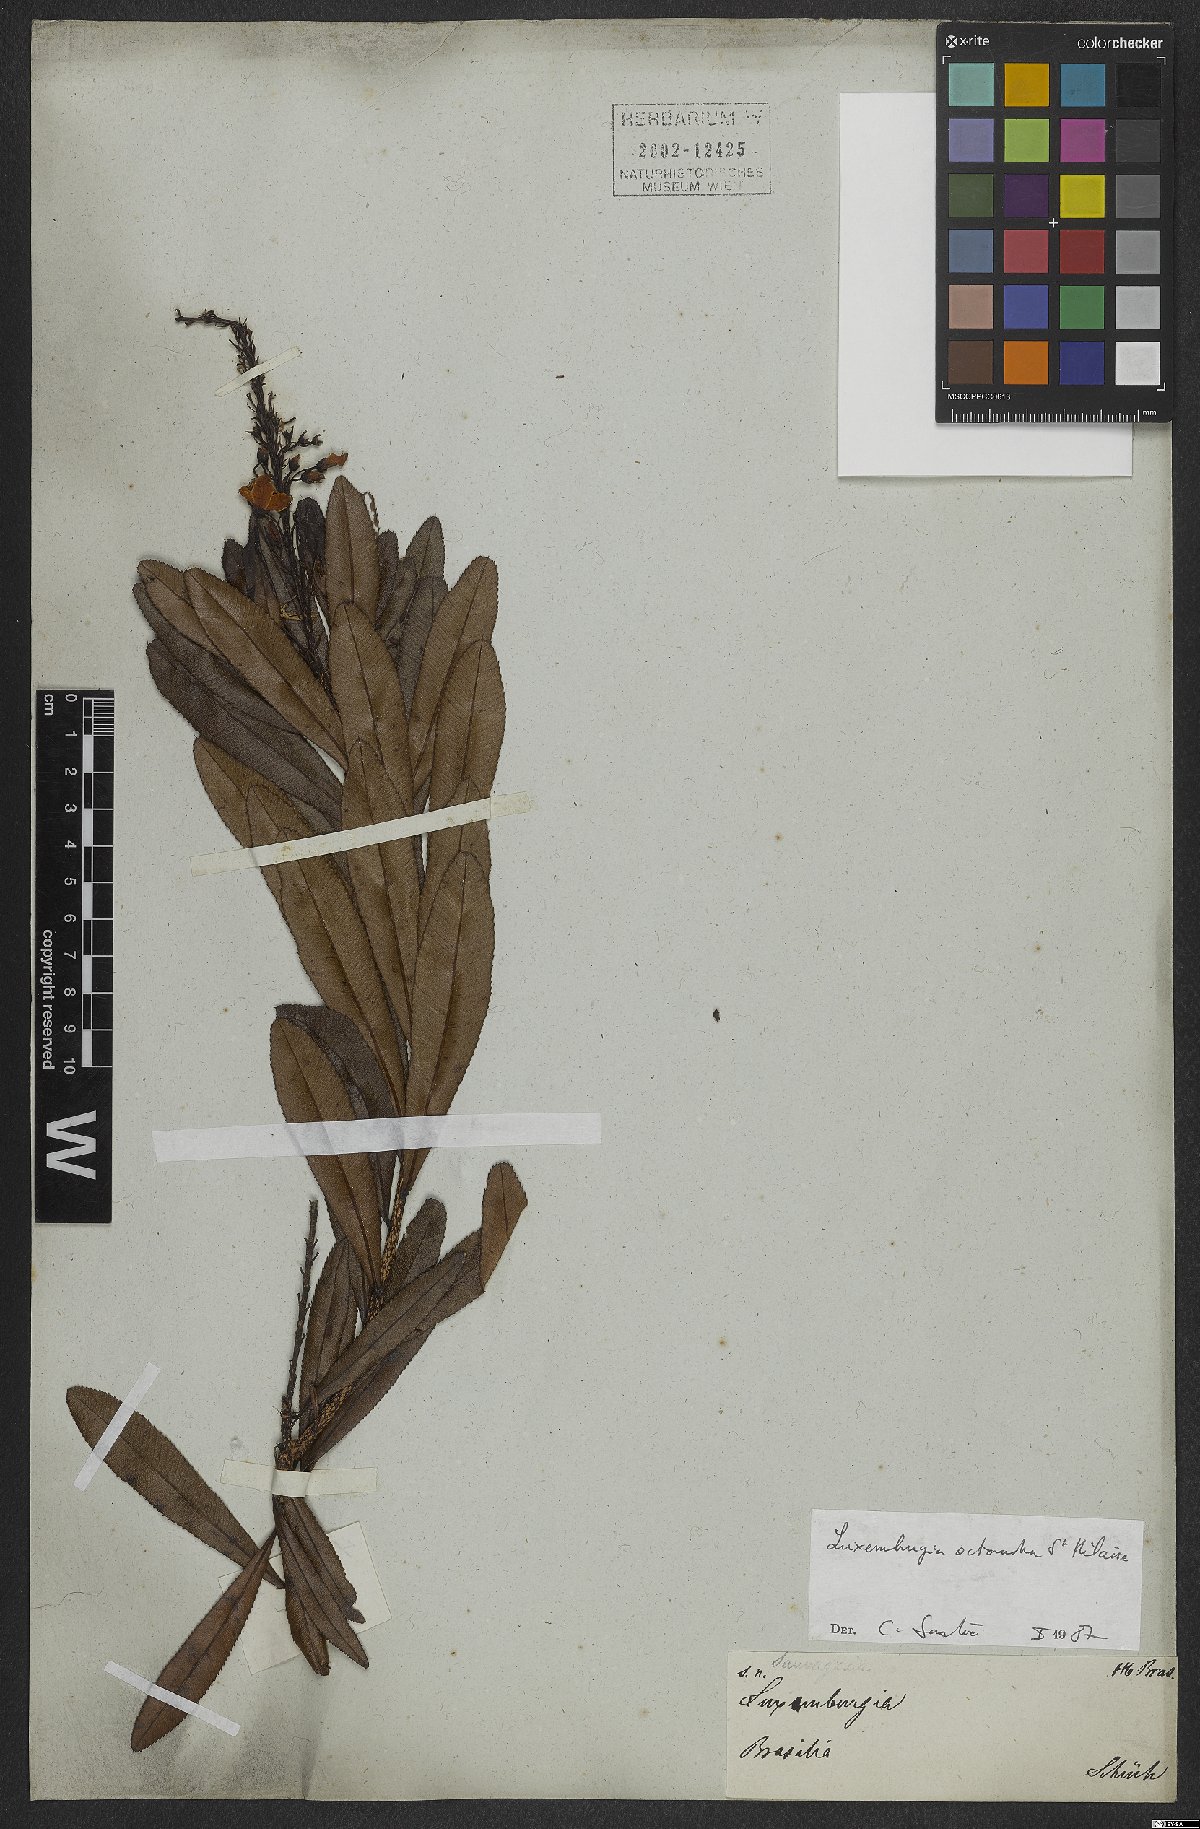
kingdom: Plantae
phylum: Tracheophyta
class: Magnoliopsida
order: Malpighiales
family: Ochnaceae
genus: Luxemburgia
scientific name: Luxemburgia octandra
